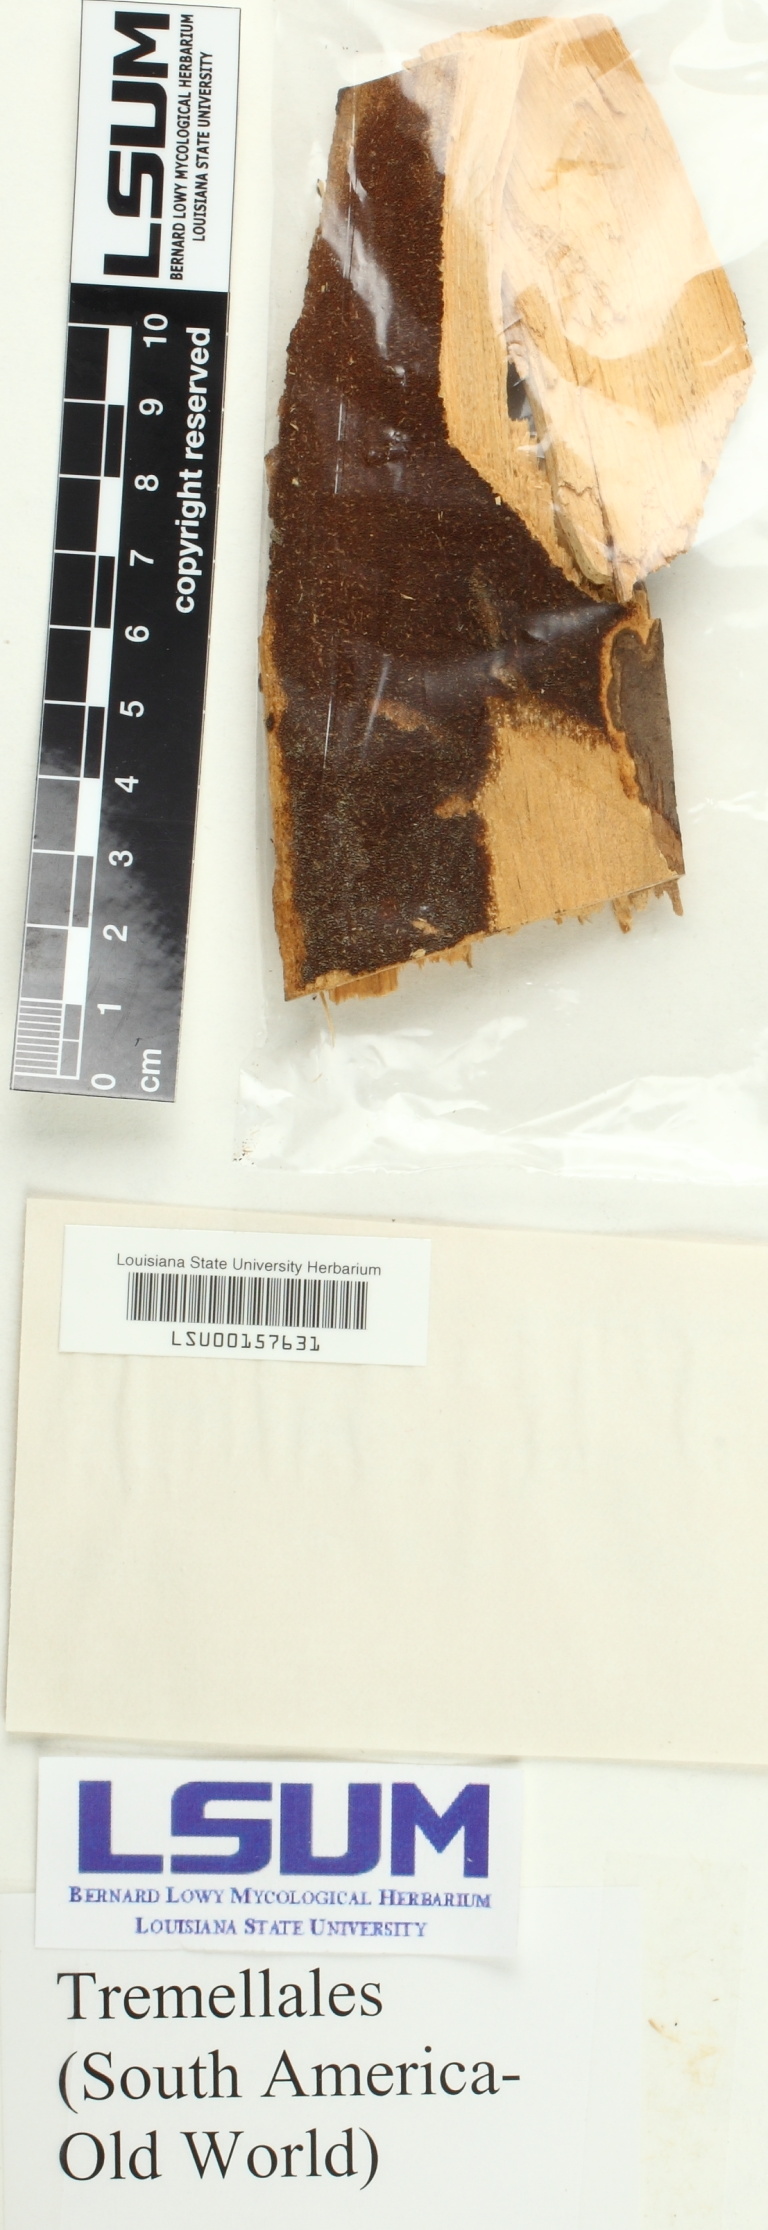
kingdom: Fungi
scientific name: Fungi
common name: Fungi
